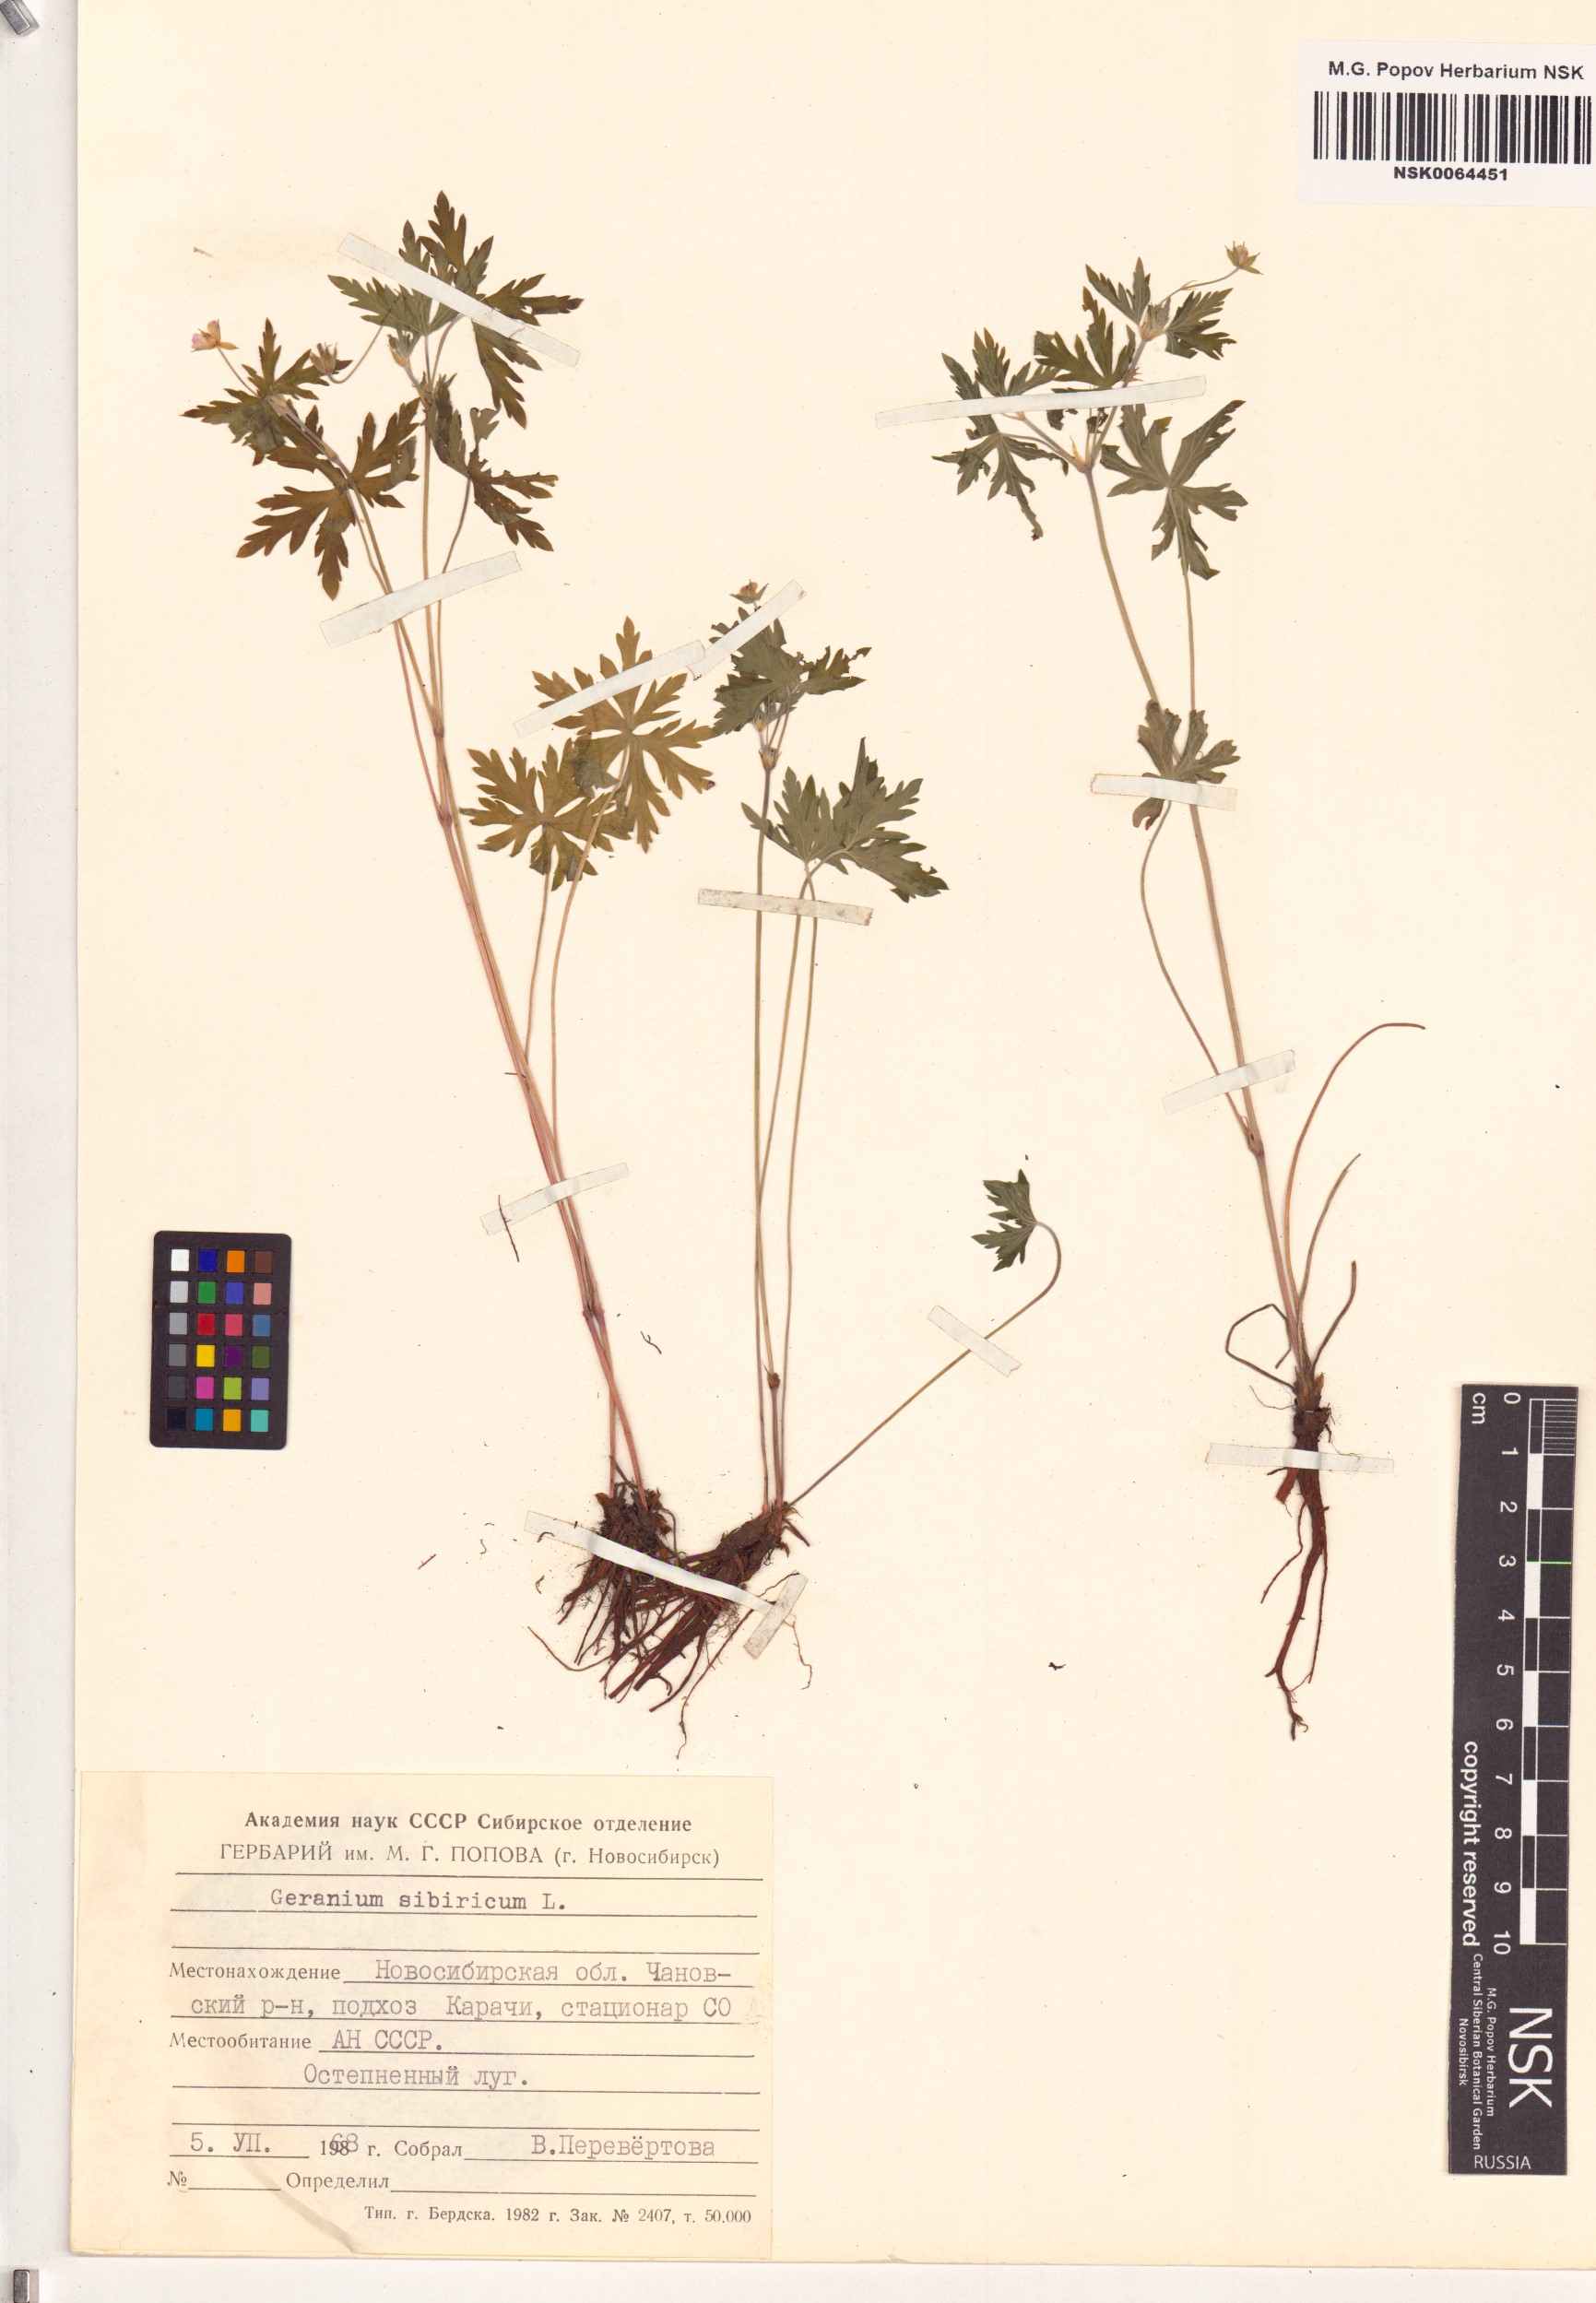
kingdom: Plantae
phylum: Tracheophyta
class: Magnoliopsida
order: Geraniales
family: Geraniaceae
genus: Geranium
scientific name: Geranium sibiricum
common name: Siberian crane's-bill
